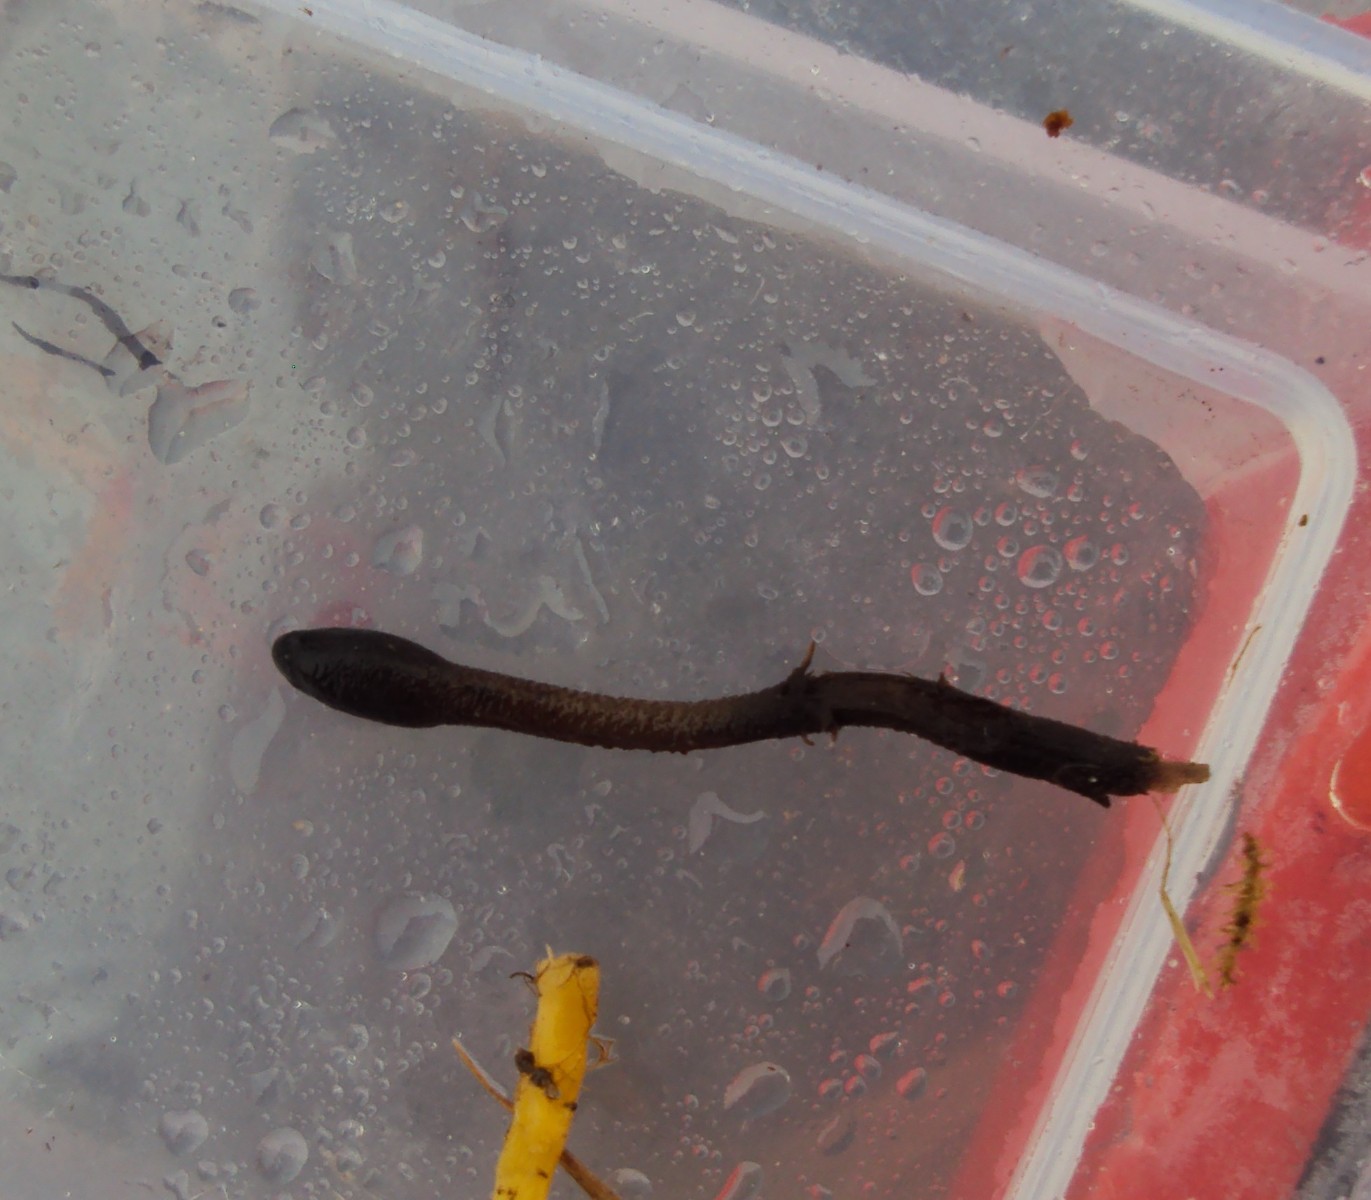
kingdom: Fungi
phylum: Ascomycota
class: Geoglossomycetes
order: Geoglossales
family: Geoglossaceae
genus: Geoglossum
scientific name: Geoglossum fallax
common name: småskællet jordtunge
